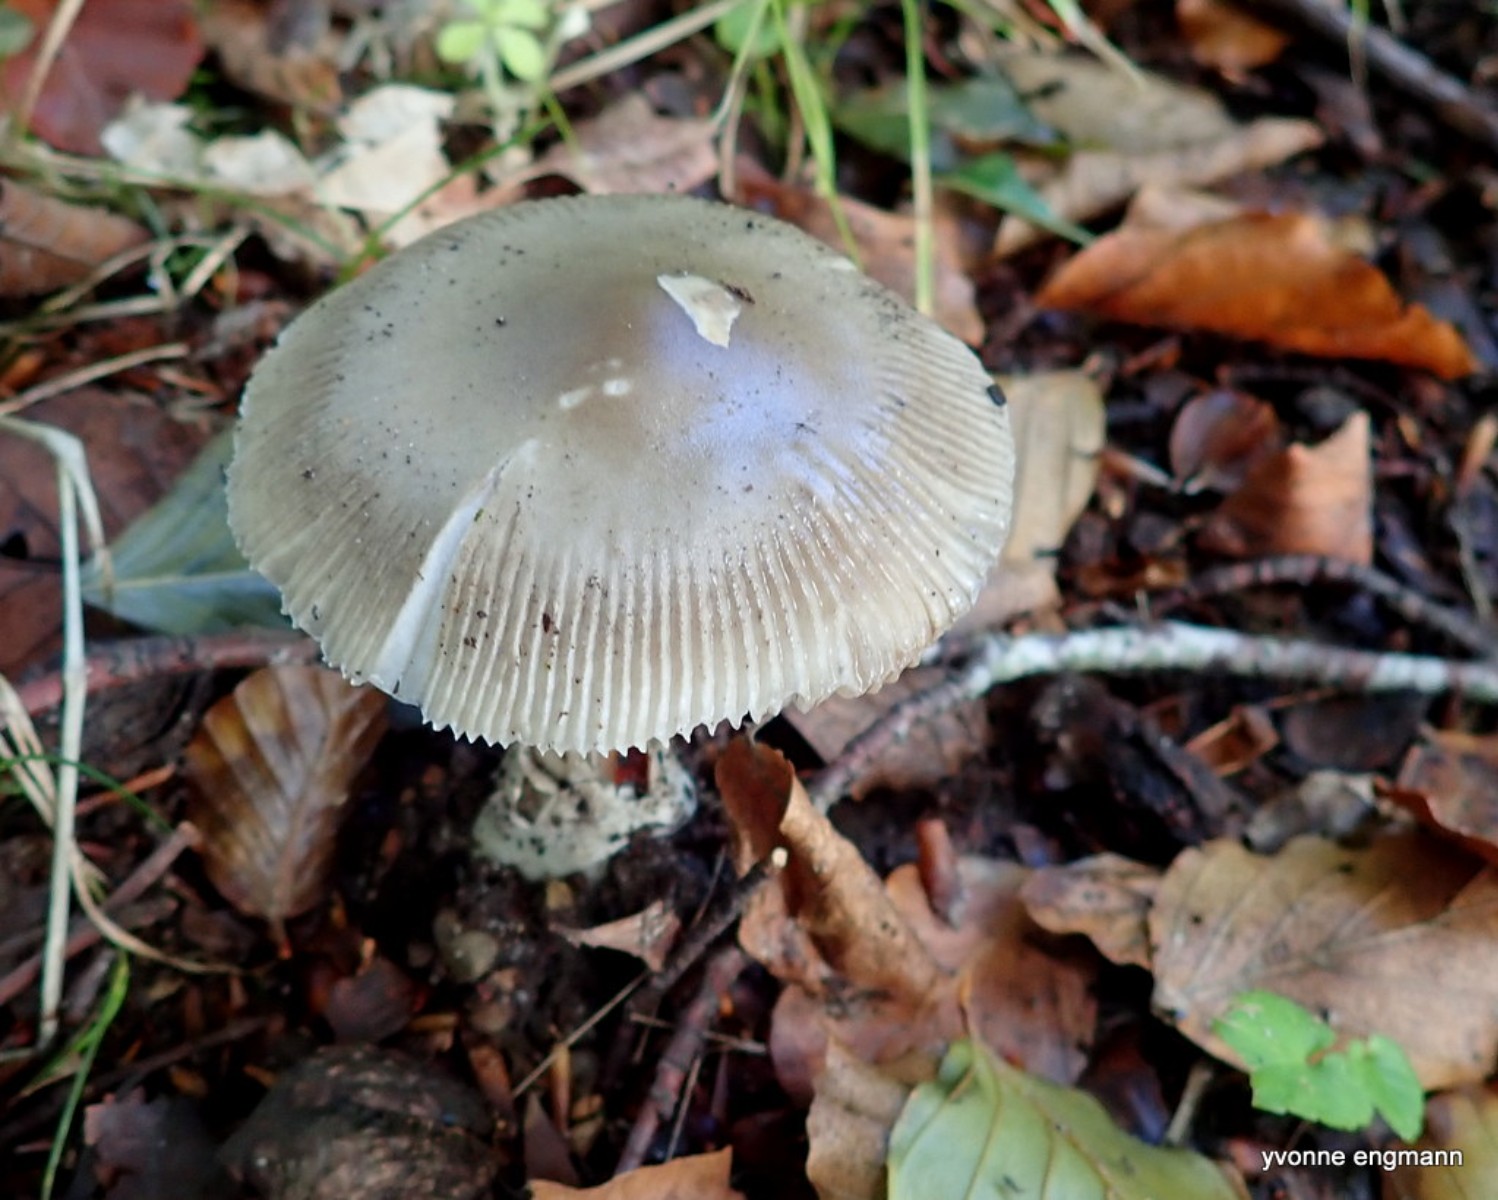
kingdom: Fungi
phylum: Basidiomycota
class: Agaricomycetes
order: Agaricales
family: Amanitaceae
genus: Amanita
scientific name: Amanita vaginata
